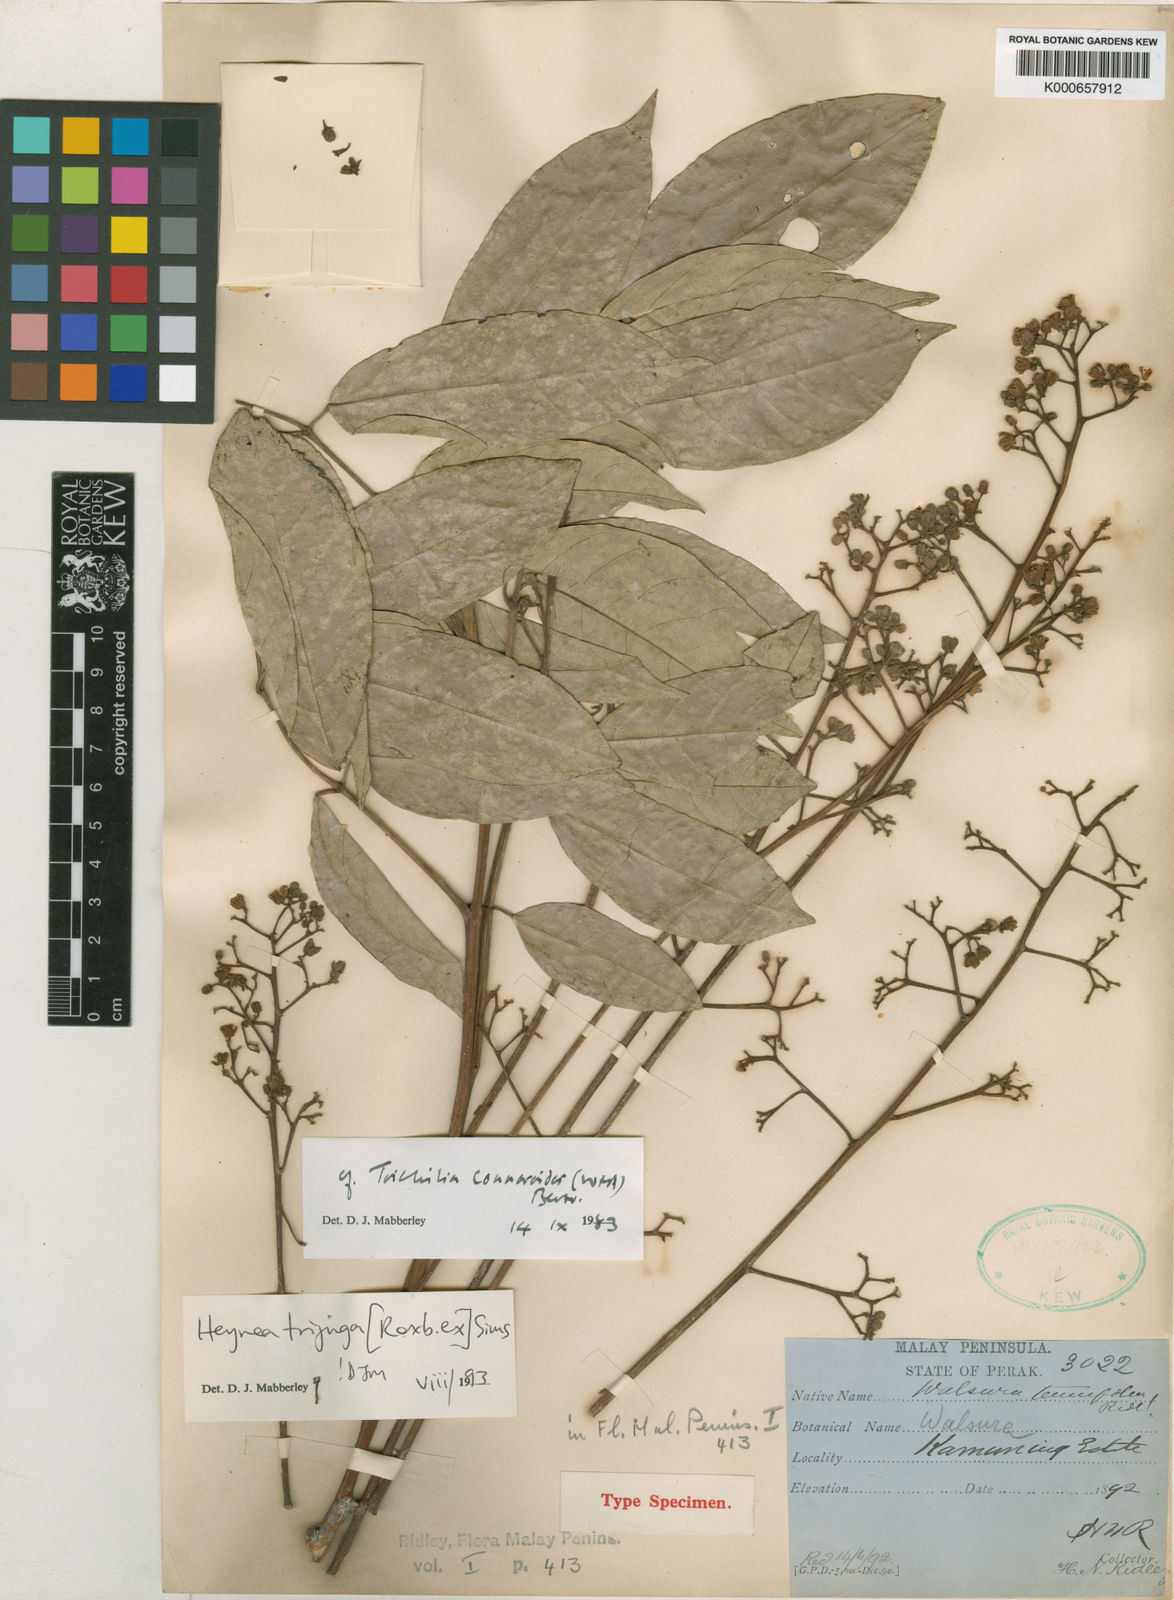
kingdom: Plantae
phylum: Tracheophyta
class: Magnoliopsida
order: Sapindales
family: Meliaceae
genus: Heynea
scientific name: Heynea trijuga
